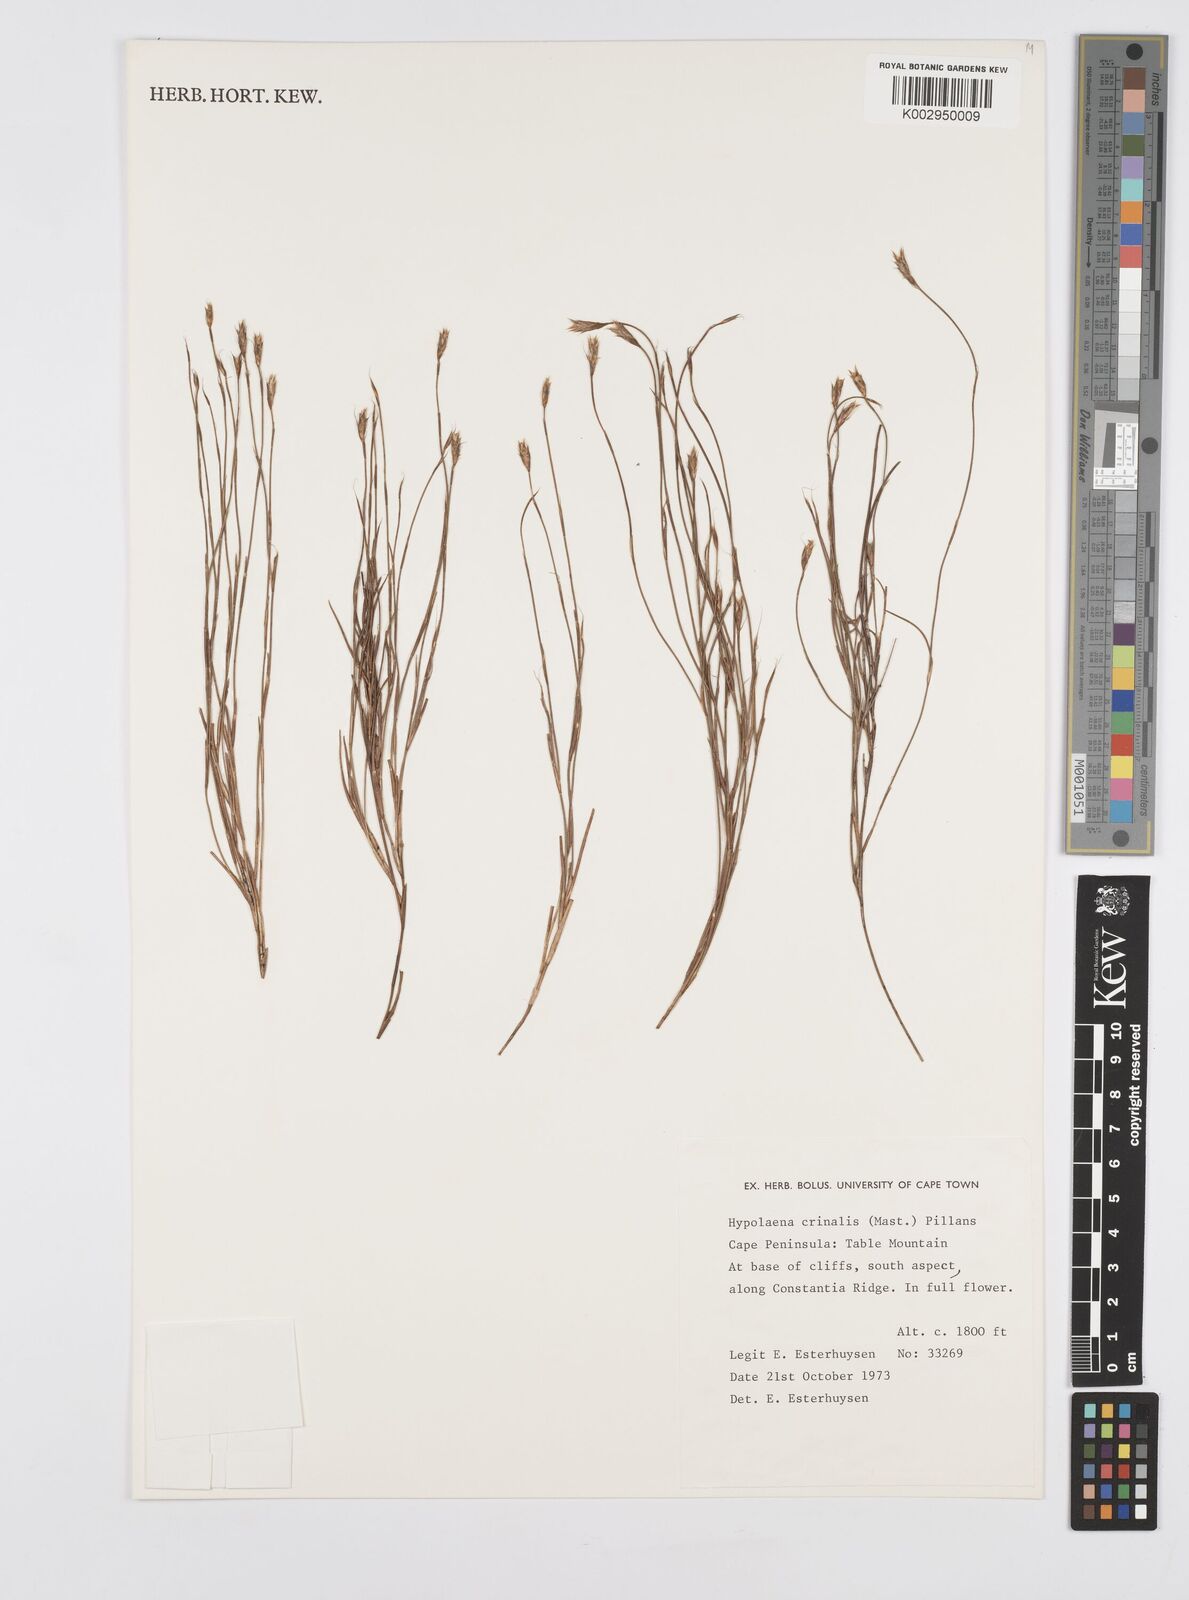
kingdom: Plantae
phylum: Tracheophyta
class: Liliopsida
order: Poales
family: Restionaceae
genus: Anthochortus
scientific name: Anthochortus crinalis
